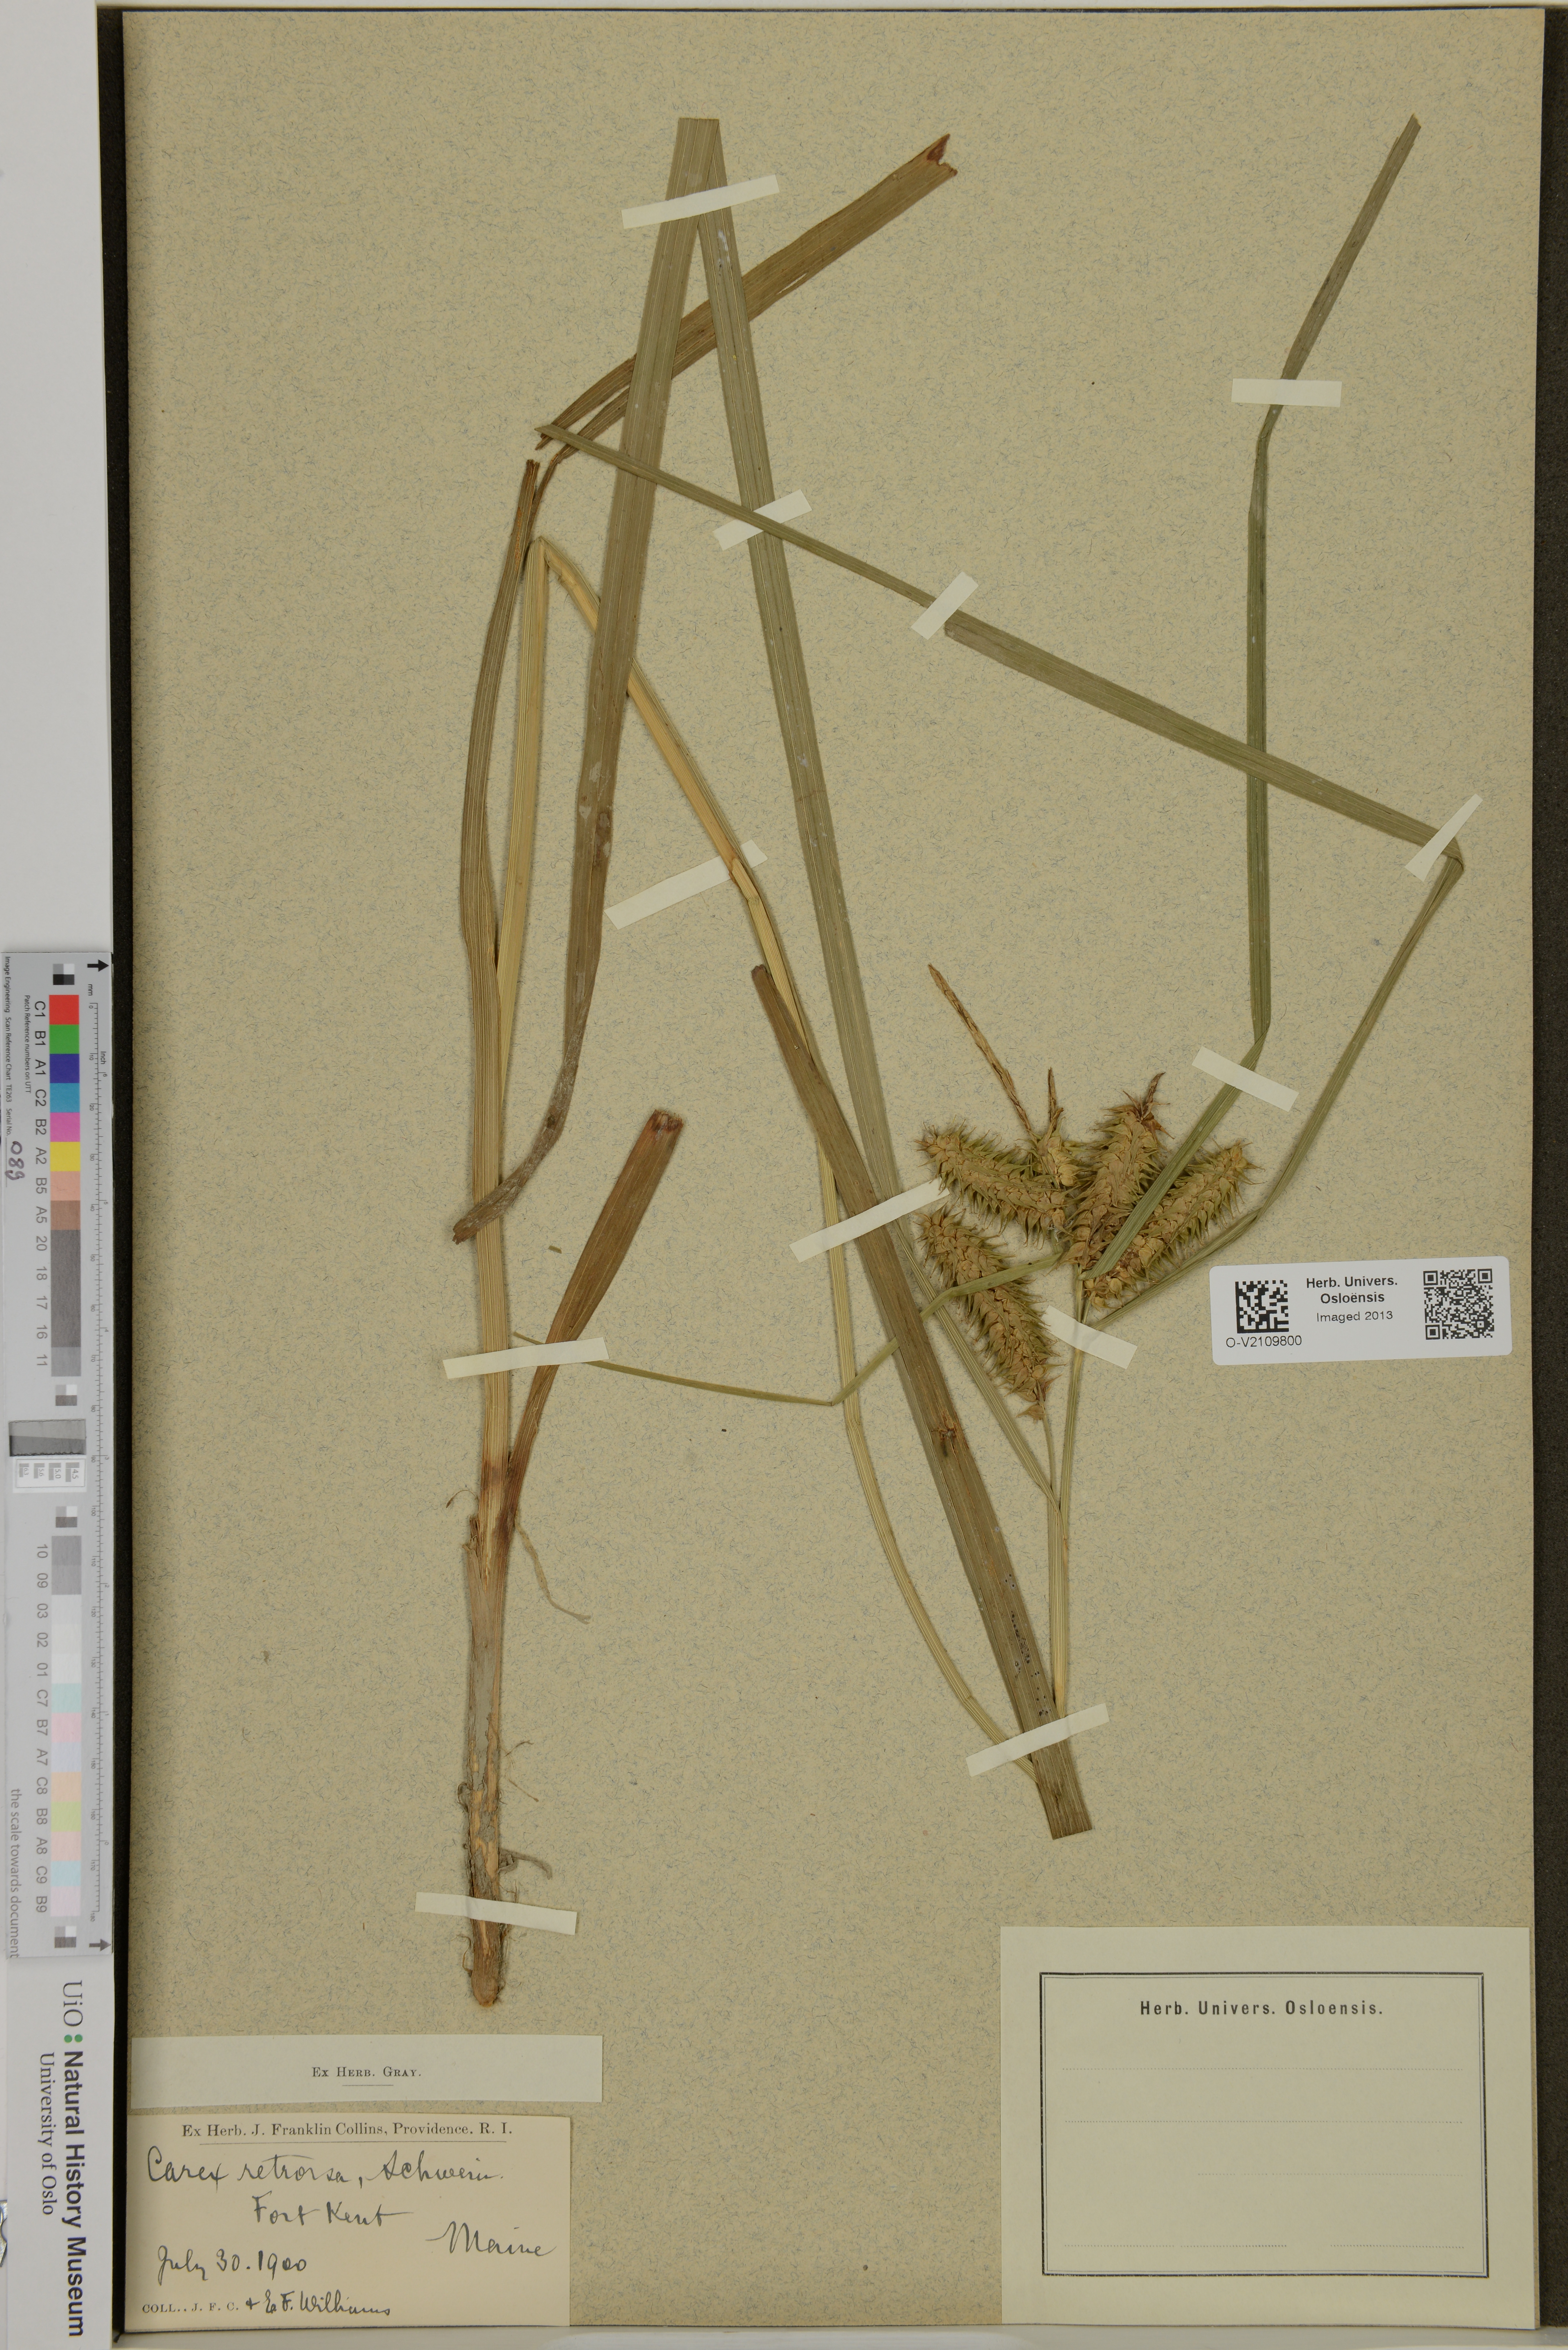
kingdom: Plantae
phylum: Tracheophyta
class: Liliopsida
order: Poales
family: Cyperaceae
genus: Carex
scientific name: Carex retrorsa
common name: Knot-sheath sedge
